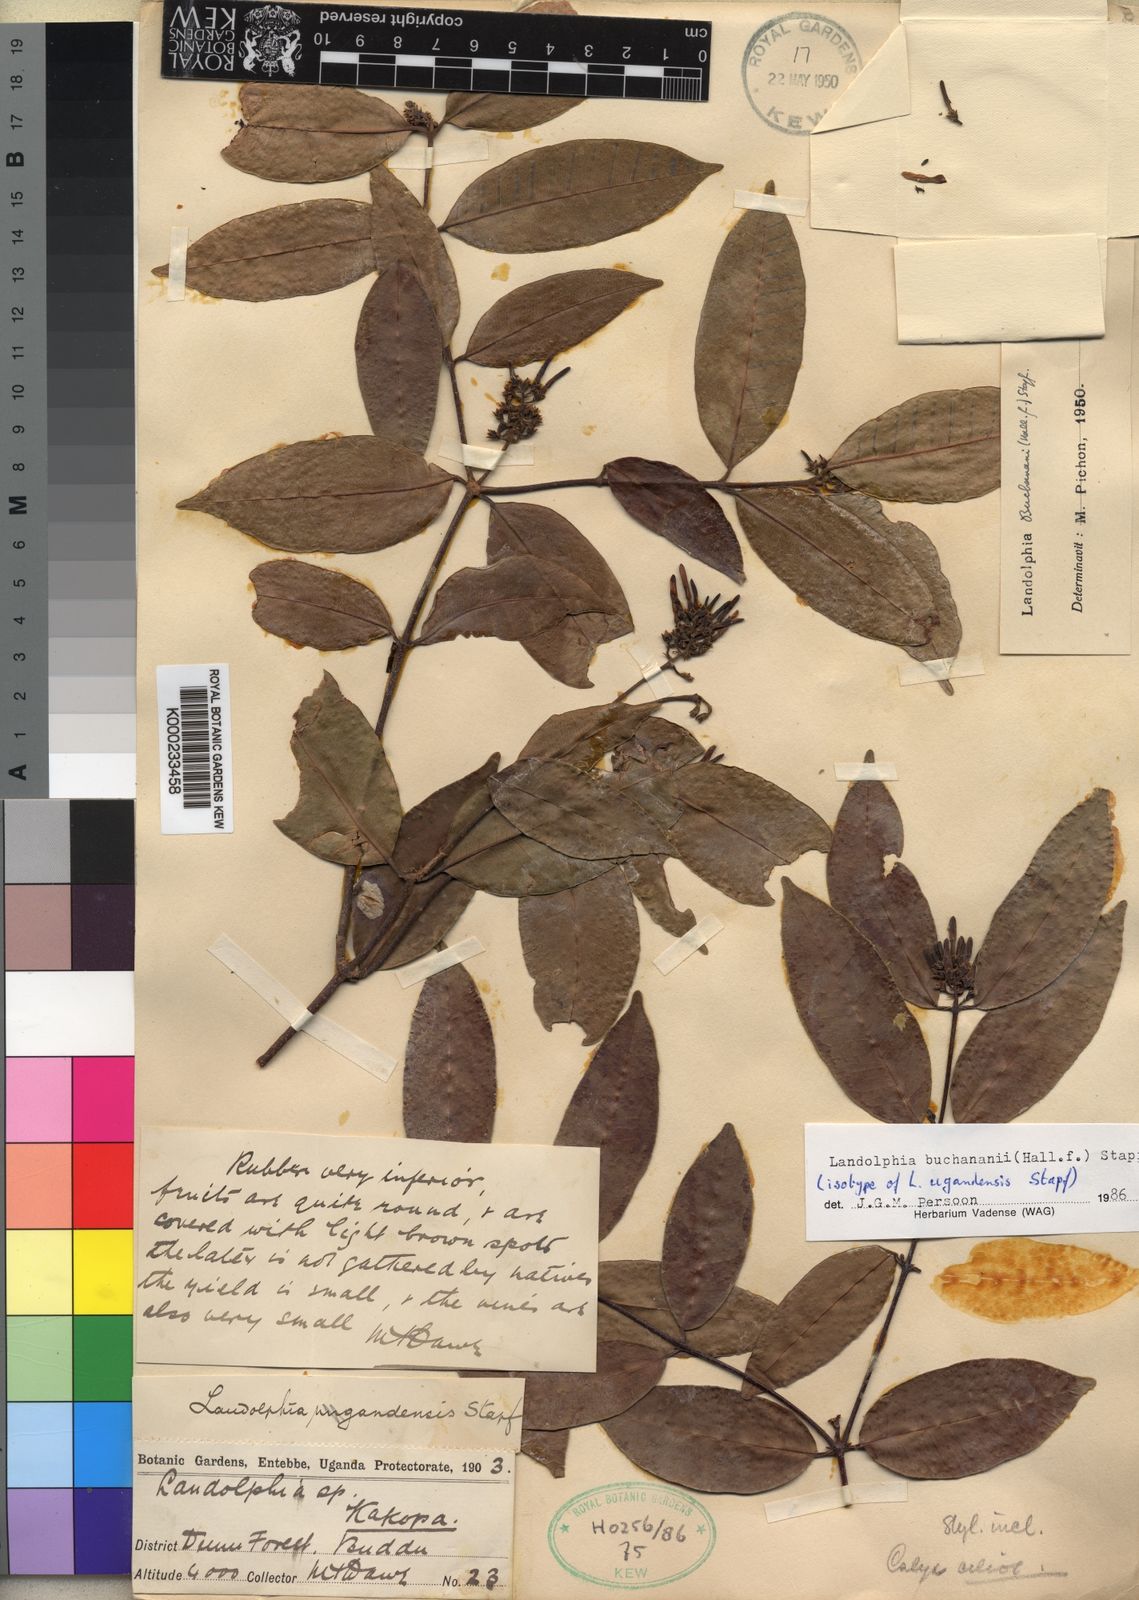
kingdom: Plantae
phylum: Tracheophyta
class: Magnoliopsida
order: Gentianales
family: Apocynaceae
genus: Landolphia
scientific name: Landolphia buchananii
